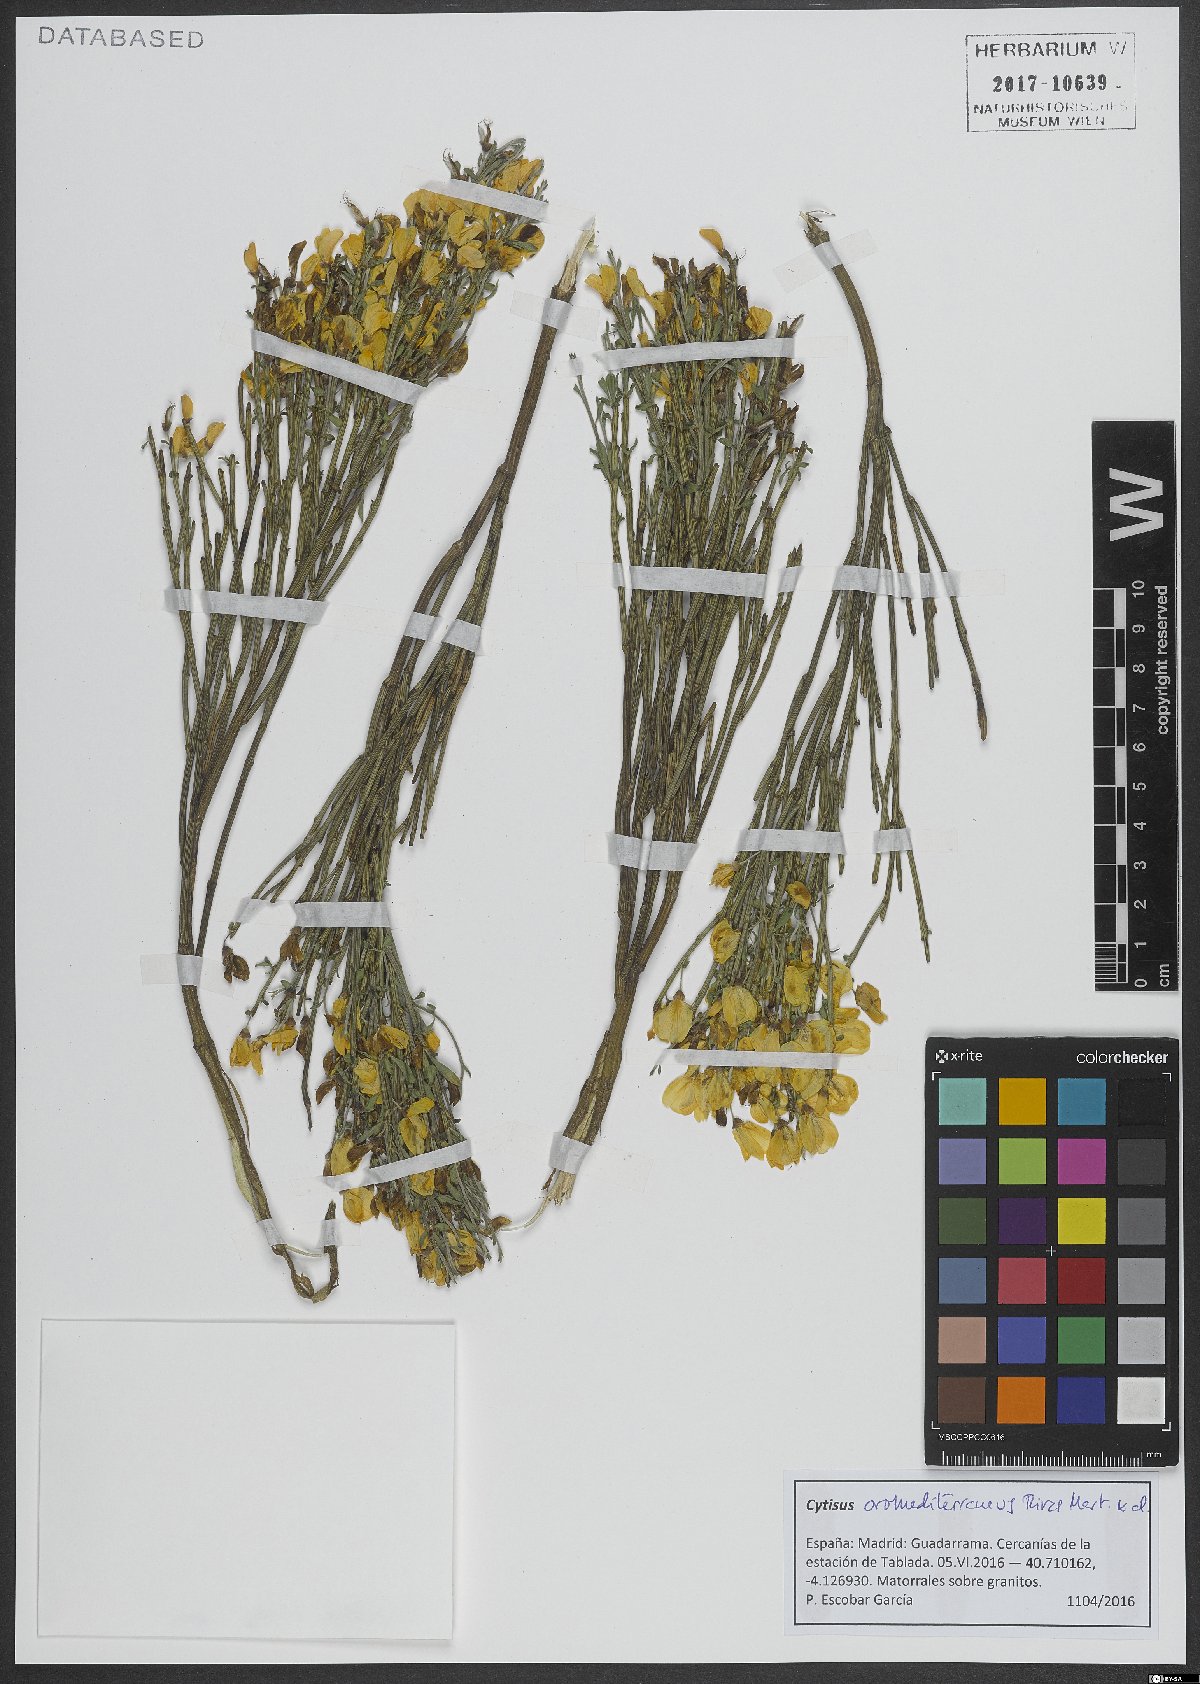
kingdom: Plantae
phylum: Tracheophyta
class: Magnoliopsida
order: Fabales
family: Fabaceae
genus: Cytisus
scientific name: Cytisus oromediterraneus
